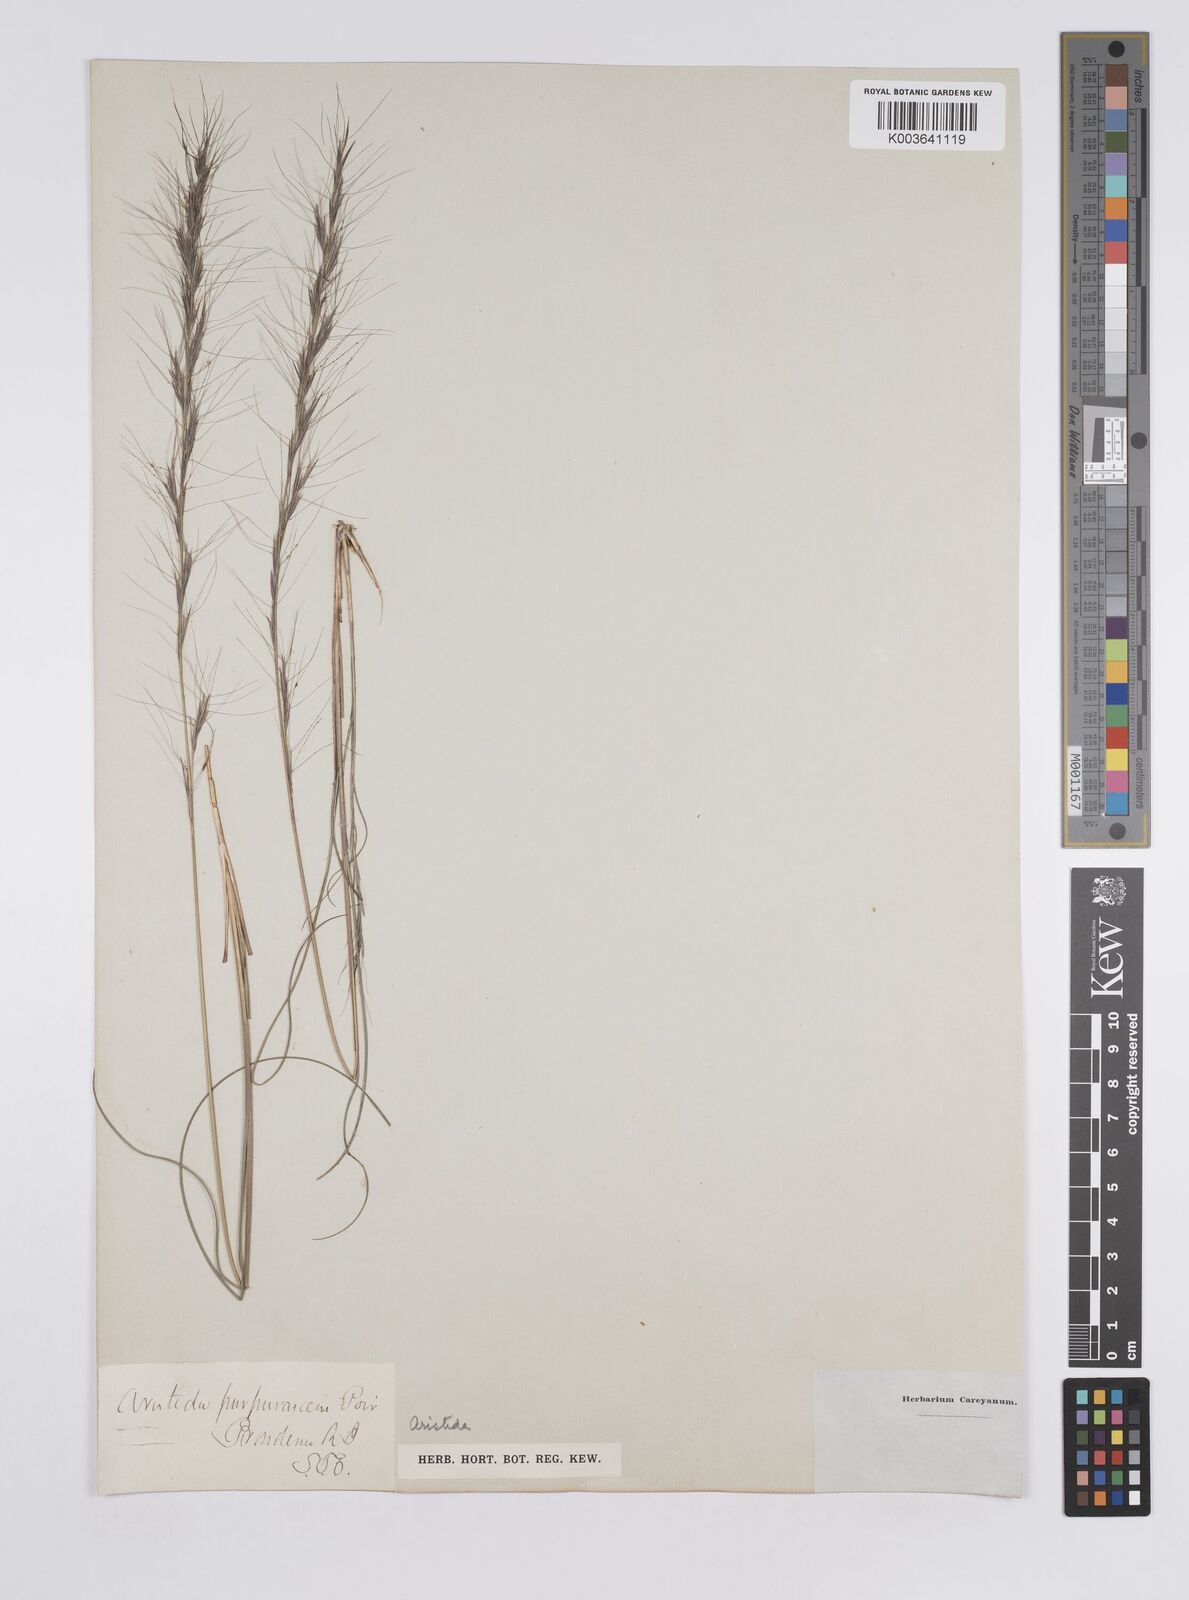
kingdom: Plantae
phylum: Tracheophyta
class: Liliopsida
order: Poales
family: Poaceae
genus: Aristida
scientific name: Aristida purpurascens
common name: Arrow-feather
